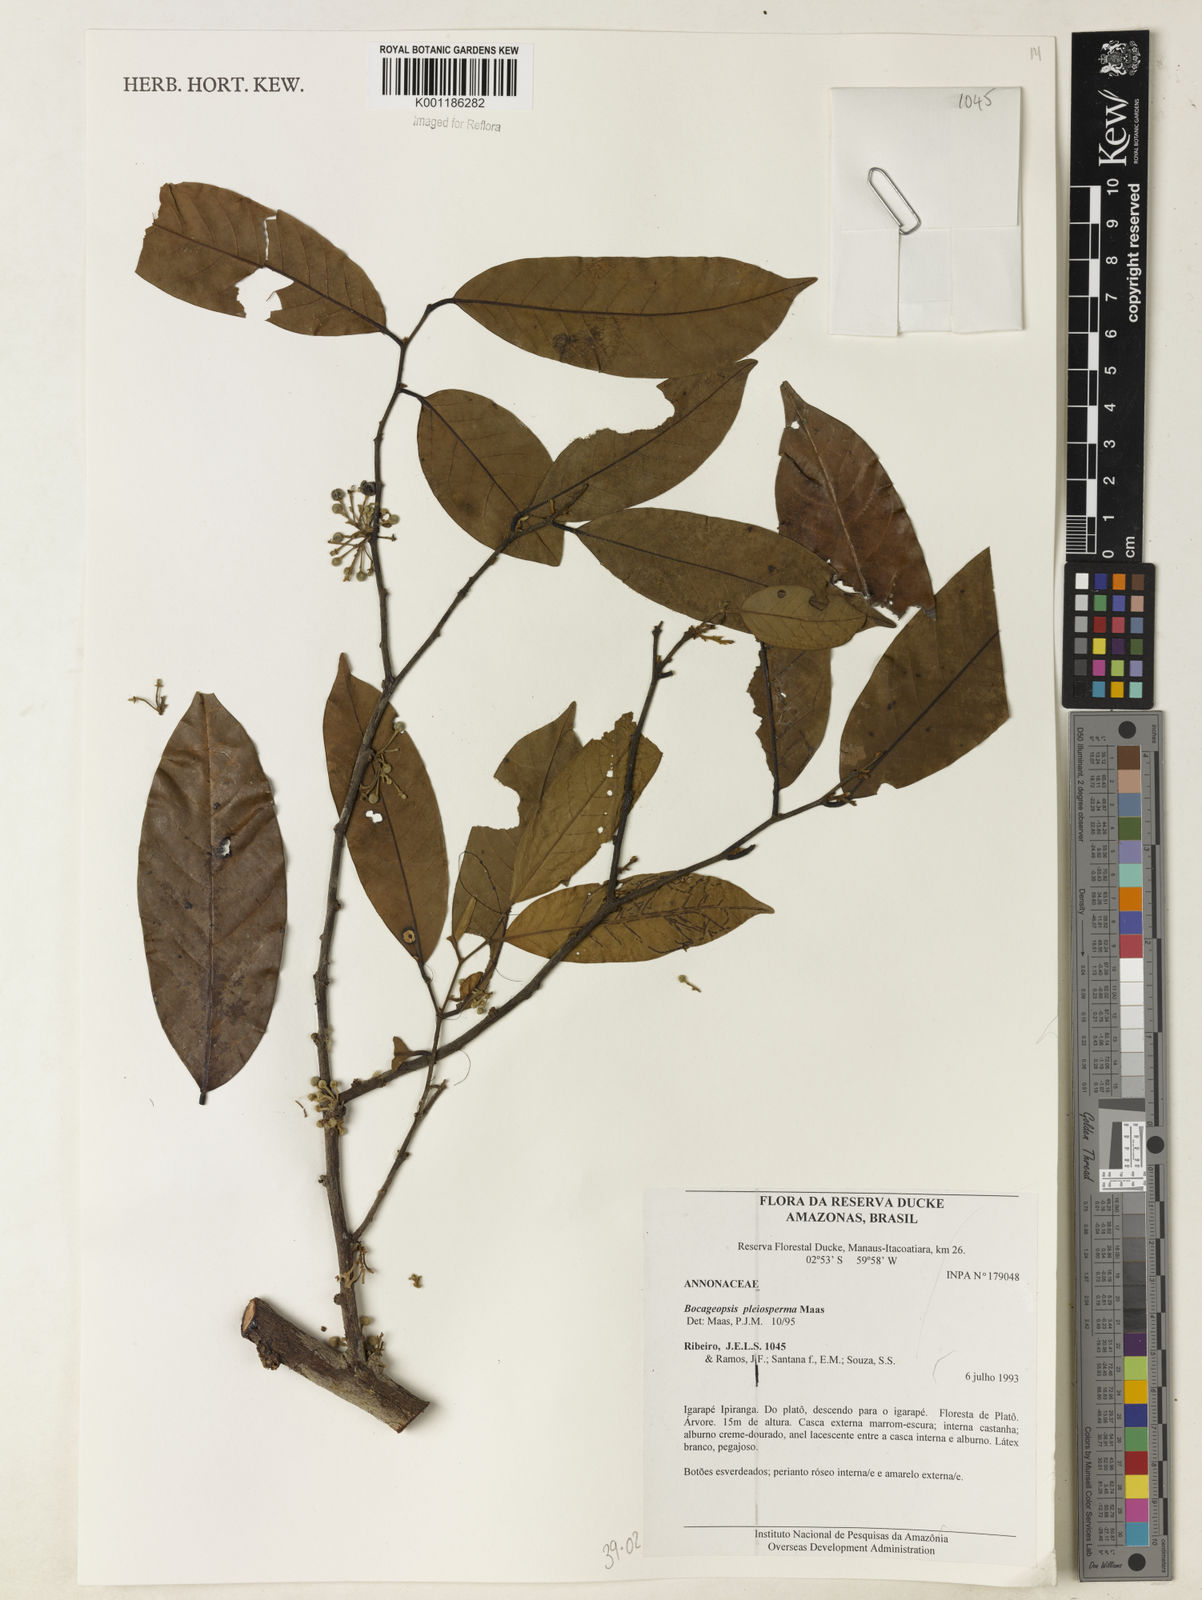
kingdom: Plantae
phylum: Tracheophyta
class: Magnoliopsida
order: Magnoliales
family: Annonaceae
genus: Bocageopsis
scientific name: Bocageopsis pleiosperma
